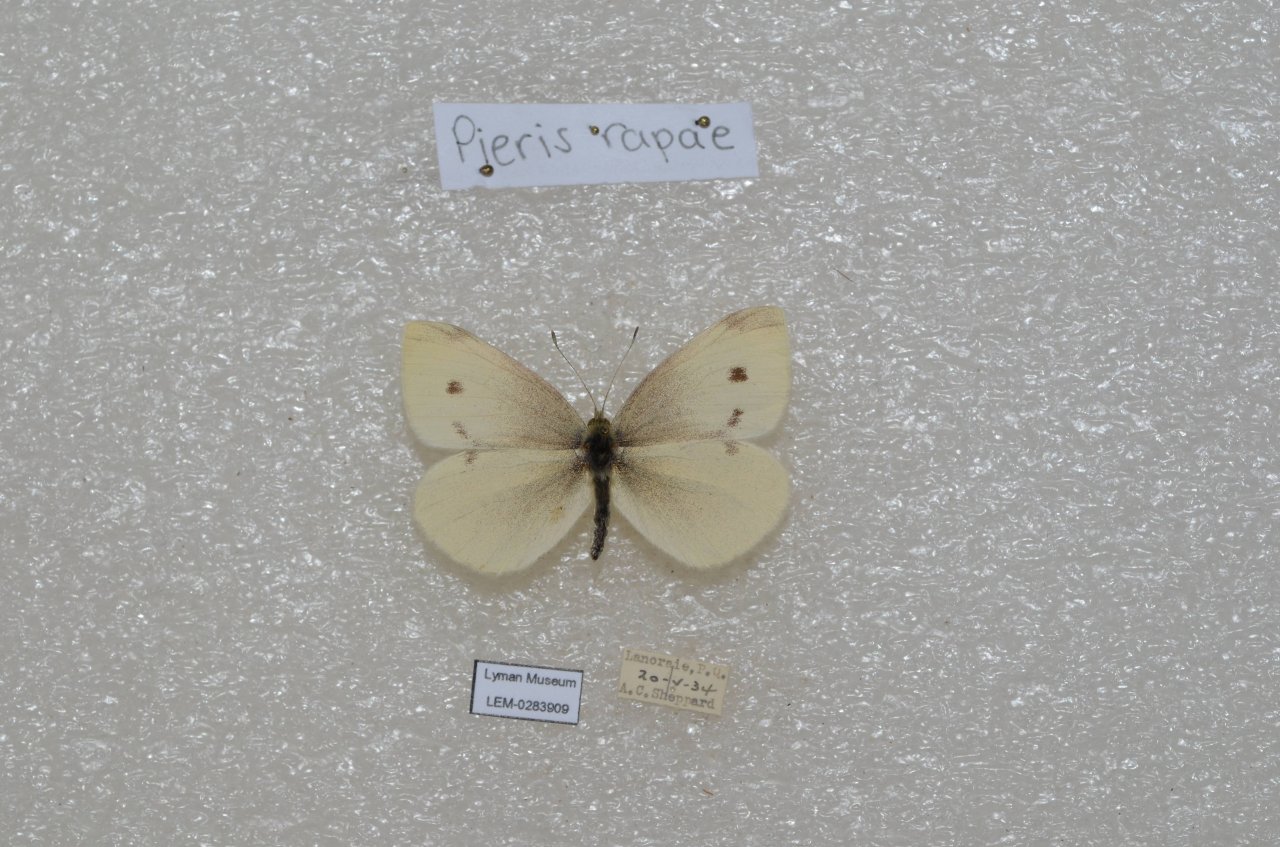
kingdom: Animalia
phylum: Arthropoda
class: Insecta
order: Lepidoptera
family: Pieridae
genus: Pieris
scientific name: Pieris rapae
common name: Cabbage White
